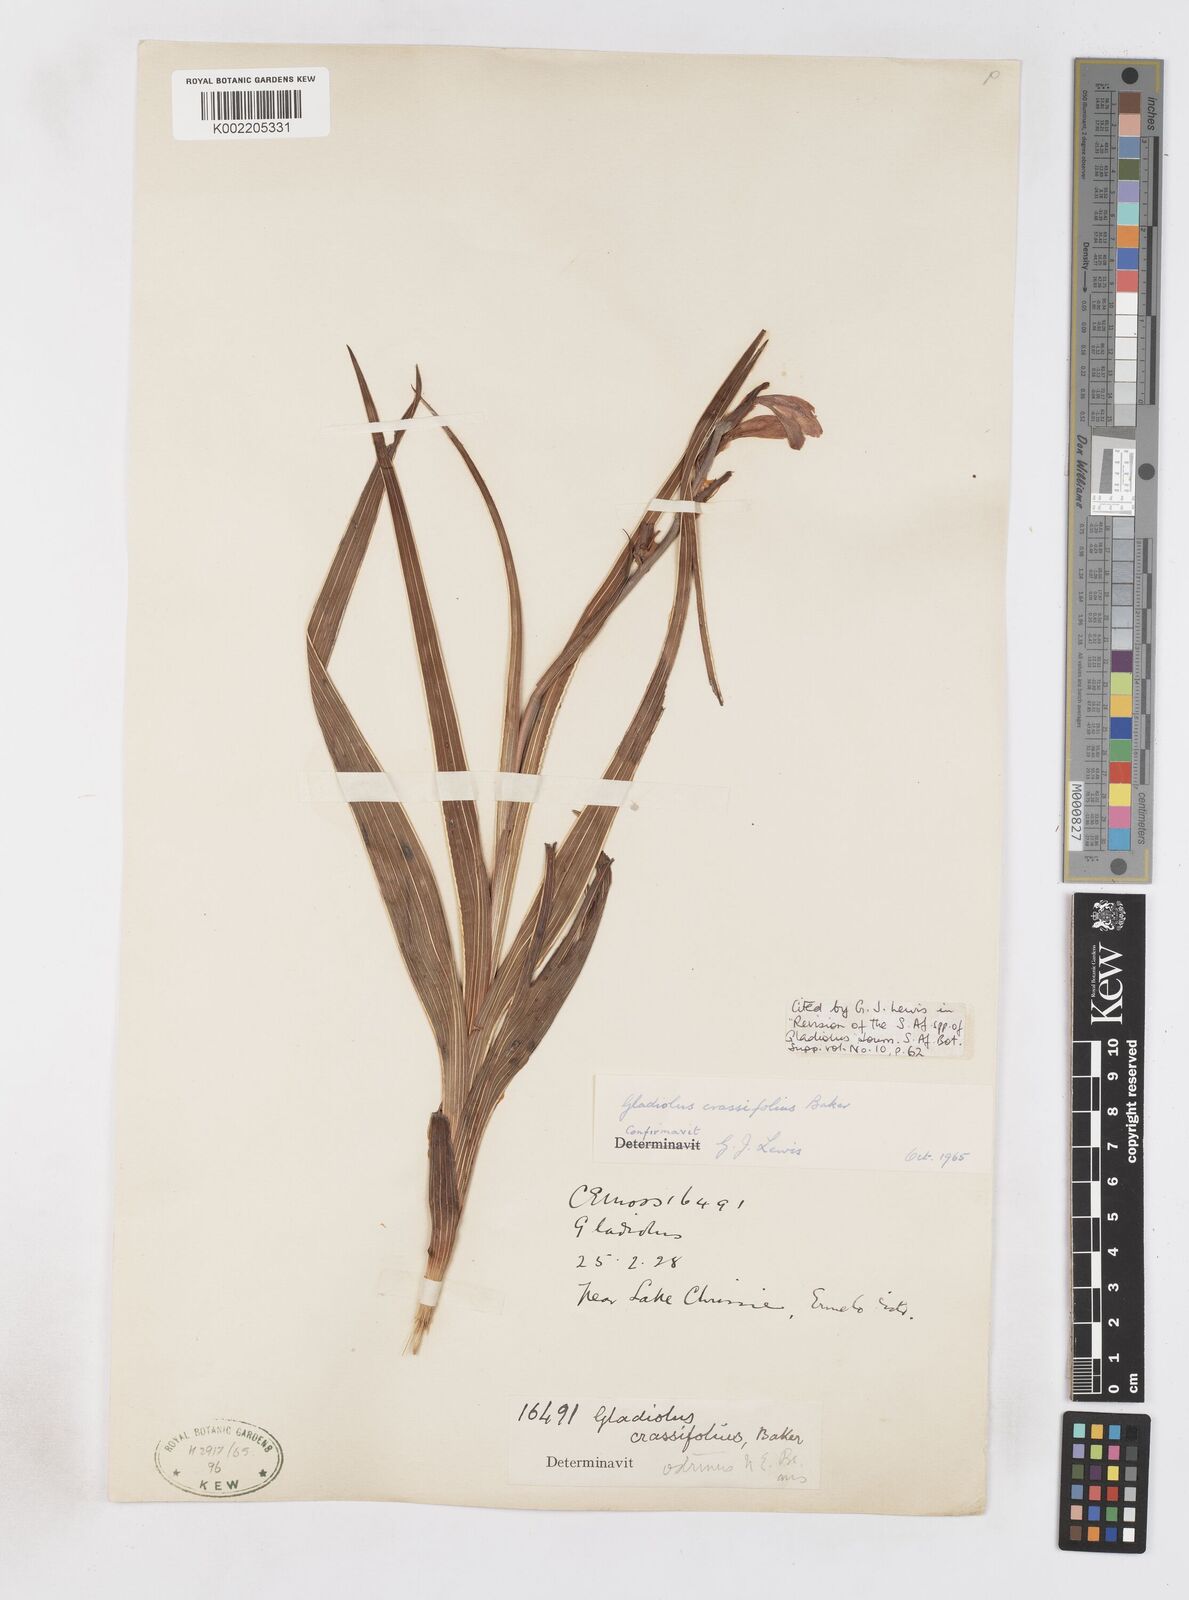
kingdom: Plantae
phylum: Tracheophyta
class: Liliopsida
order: Asparagales
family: Iridaceae
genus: Gladiolus
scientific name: Gladiolus crassifolius
